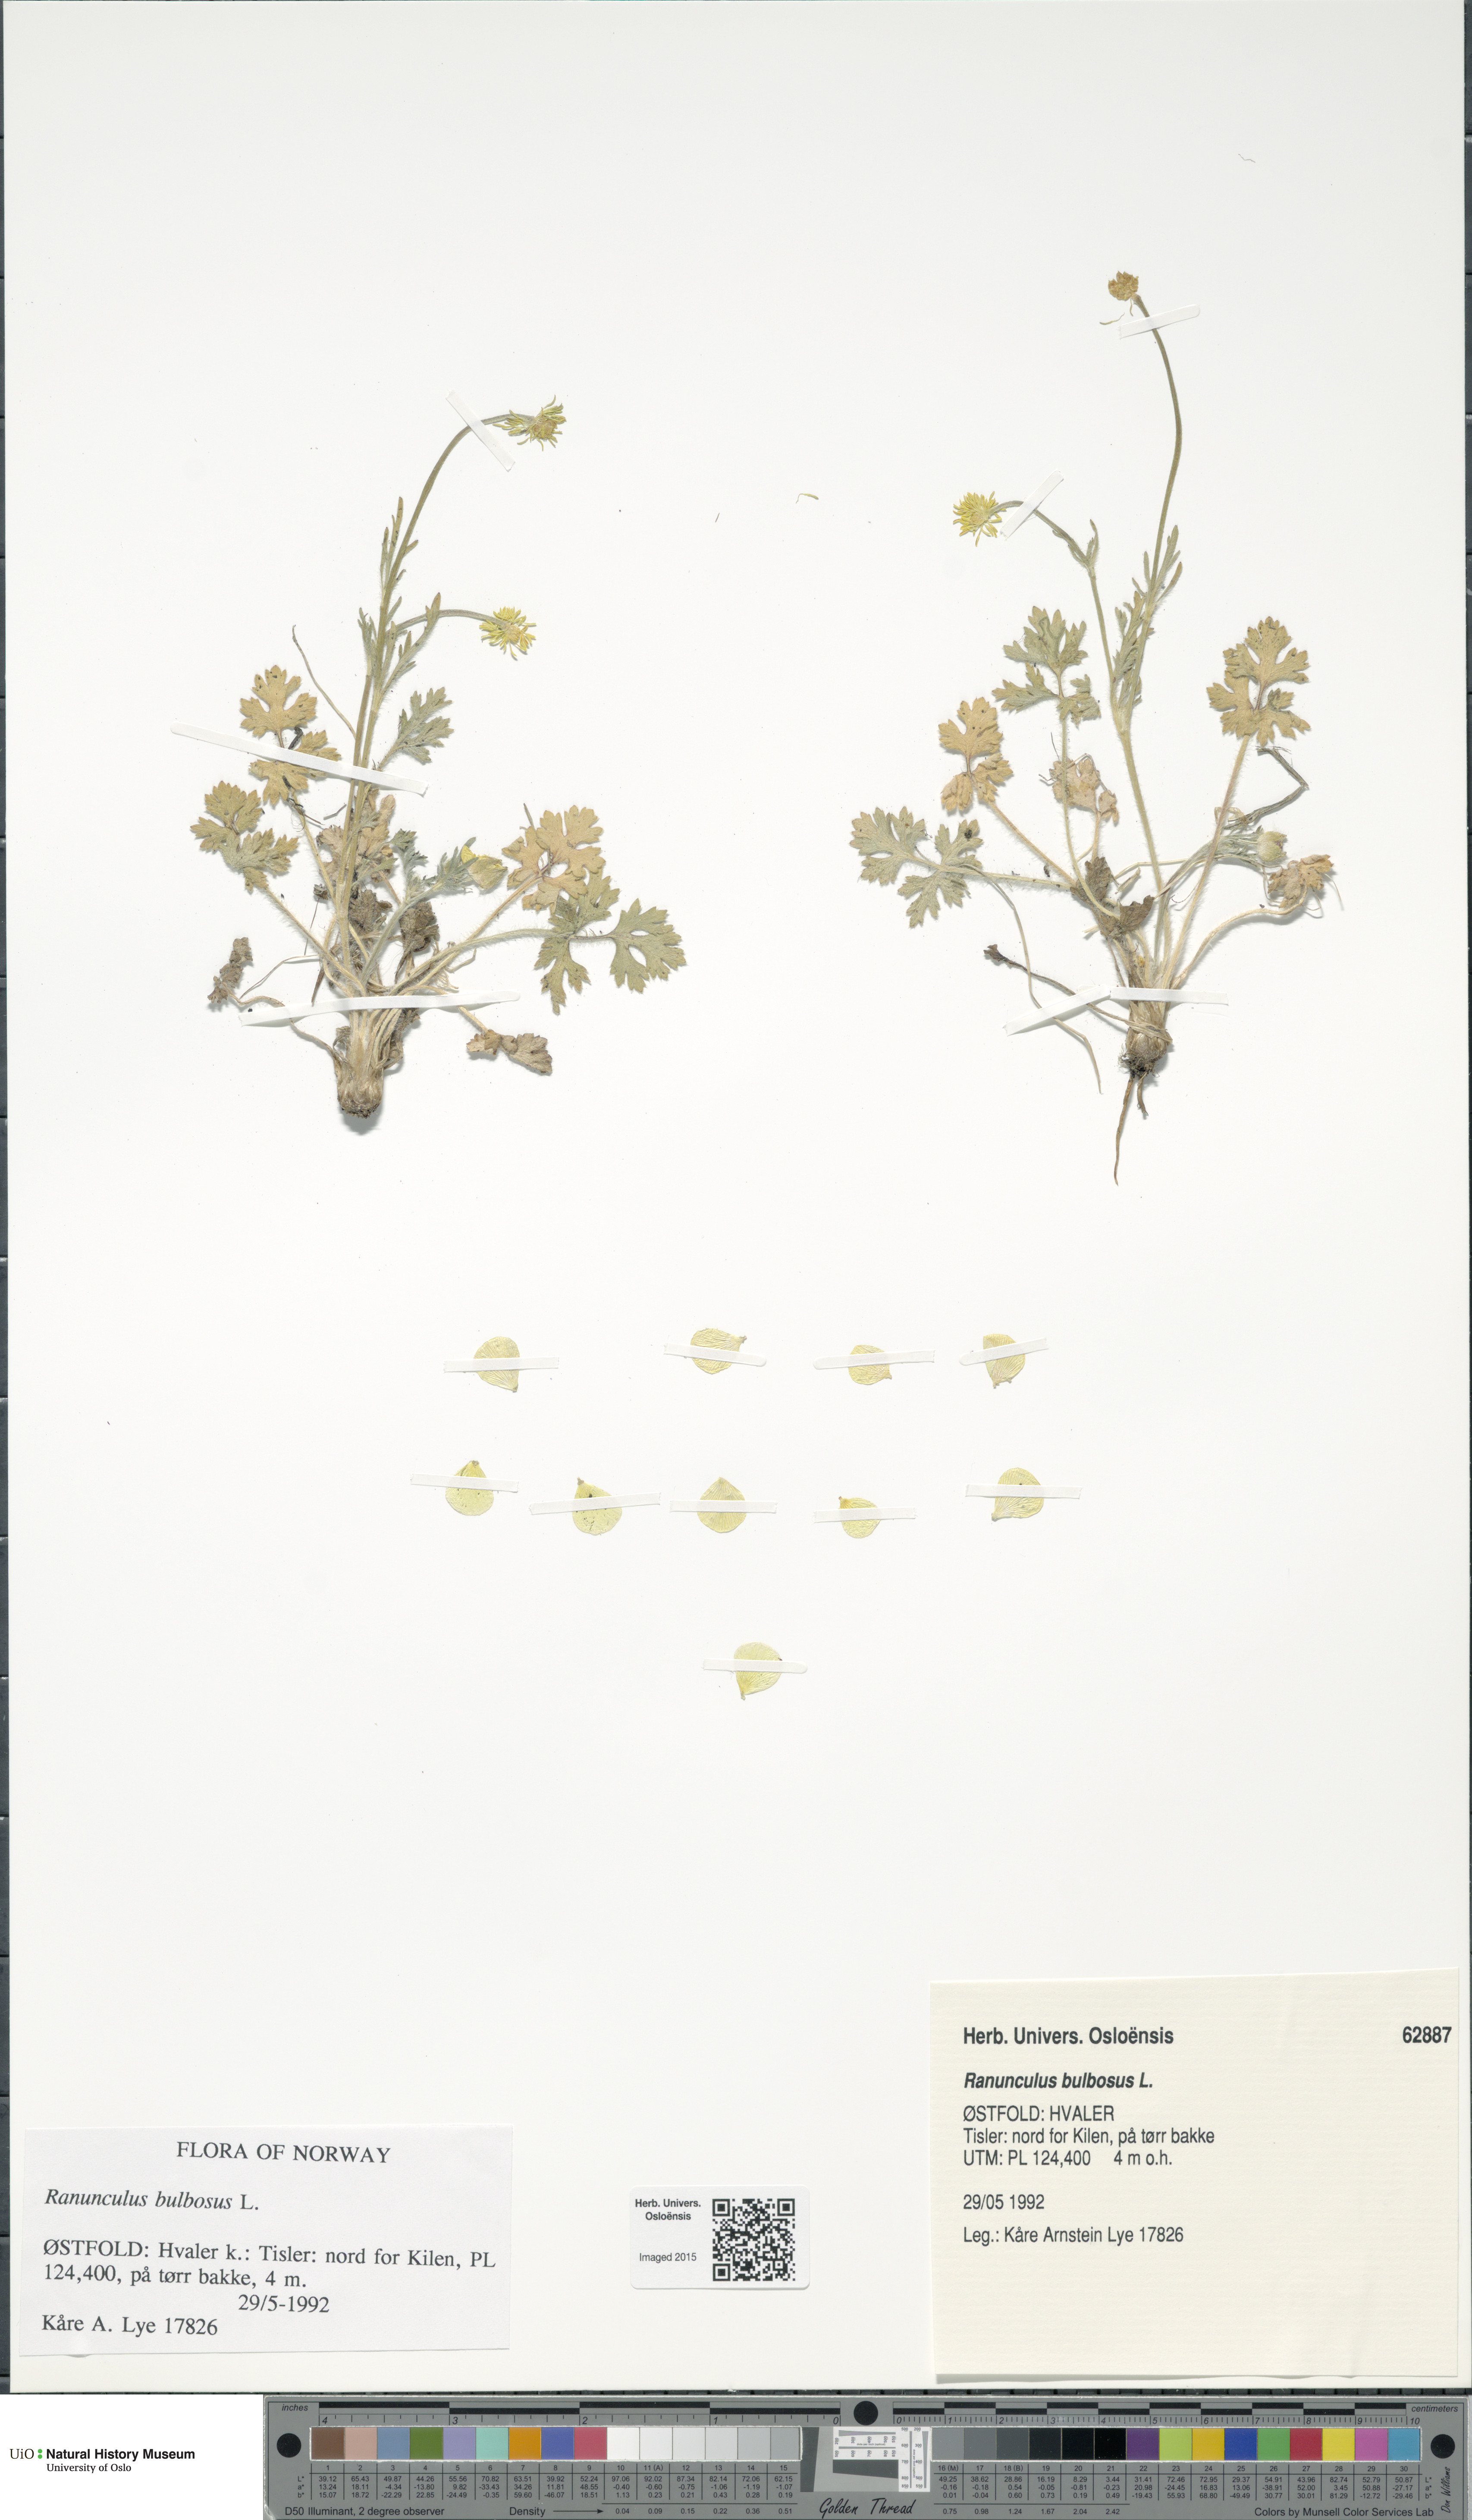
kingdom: Plantae
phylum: Tracheophyta
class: Magnoliopsida
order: Ranunculales
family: Ranunculaceae
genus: Ranunculus
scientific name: Ranunculus bulbosus
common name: Bulbous buttercup
